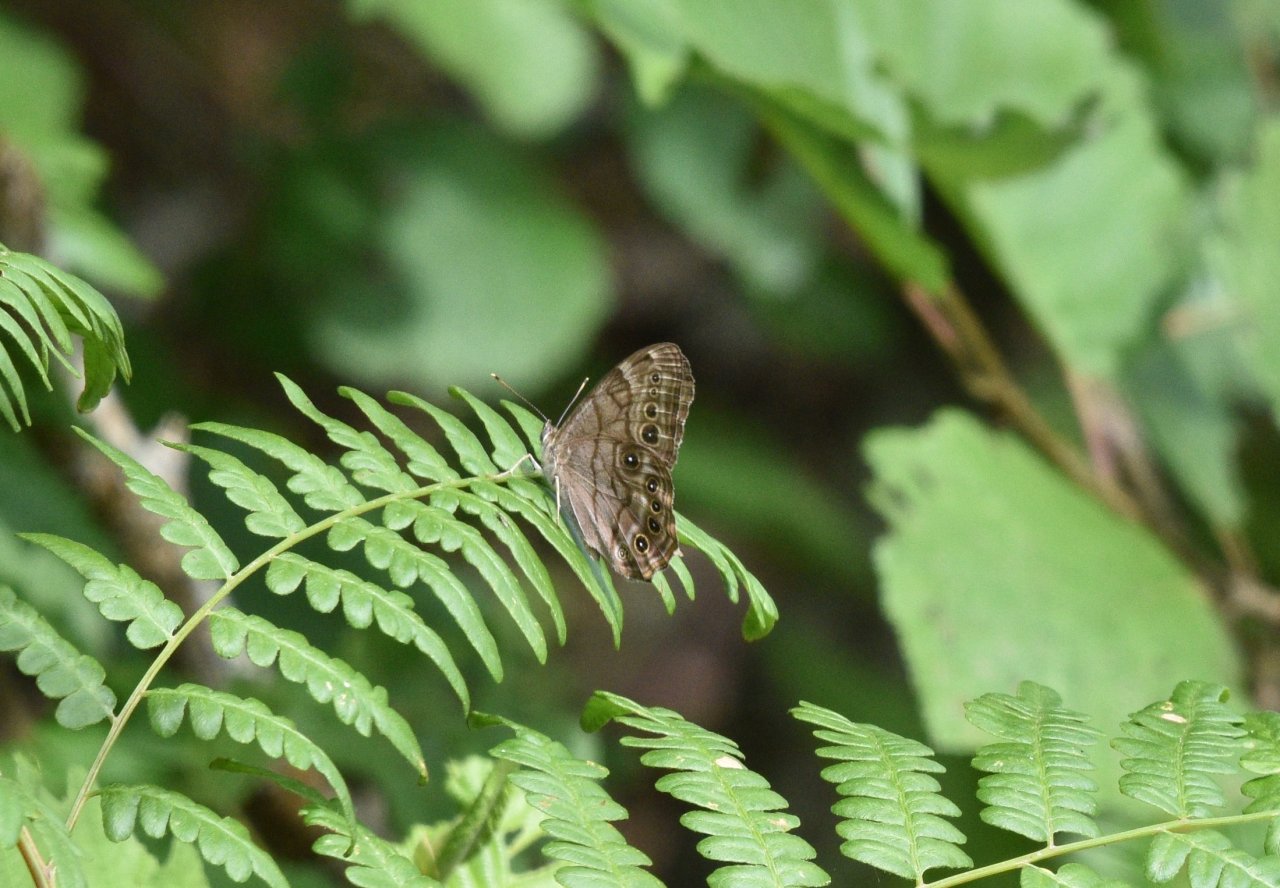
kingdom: Animalia
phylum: Arthropoda
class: Insecta
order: Lepidoptera
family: Nymphalidae
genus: Lethe
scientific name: Lethe anthedon
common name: Northern Pearly-Eye
